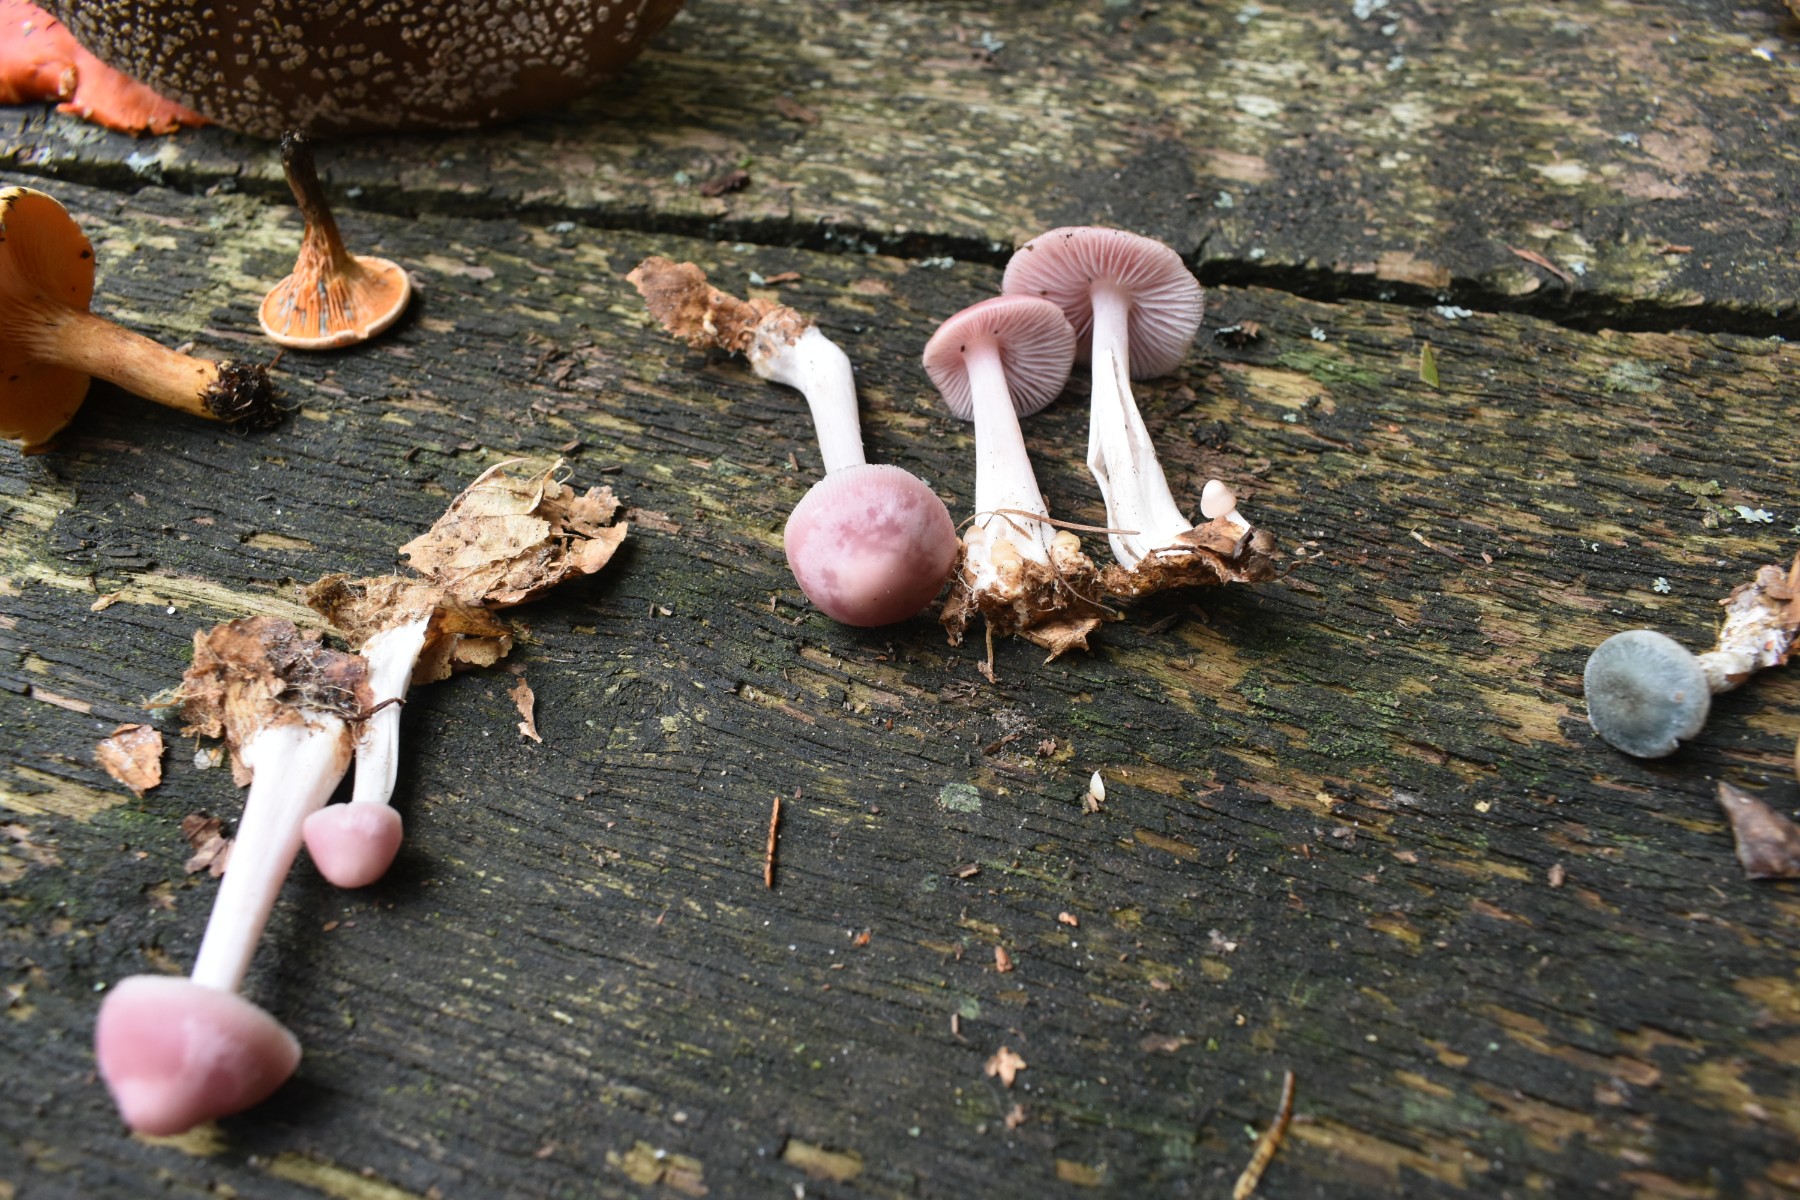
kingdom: Fungi
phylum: Basidiomycota
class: Agaricomycetes
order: Agaricales
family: Mycenaceae
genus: Mycena
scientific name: Mycena rosea
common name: rosa huesvamp
